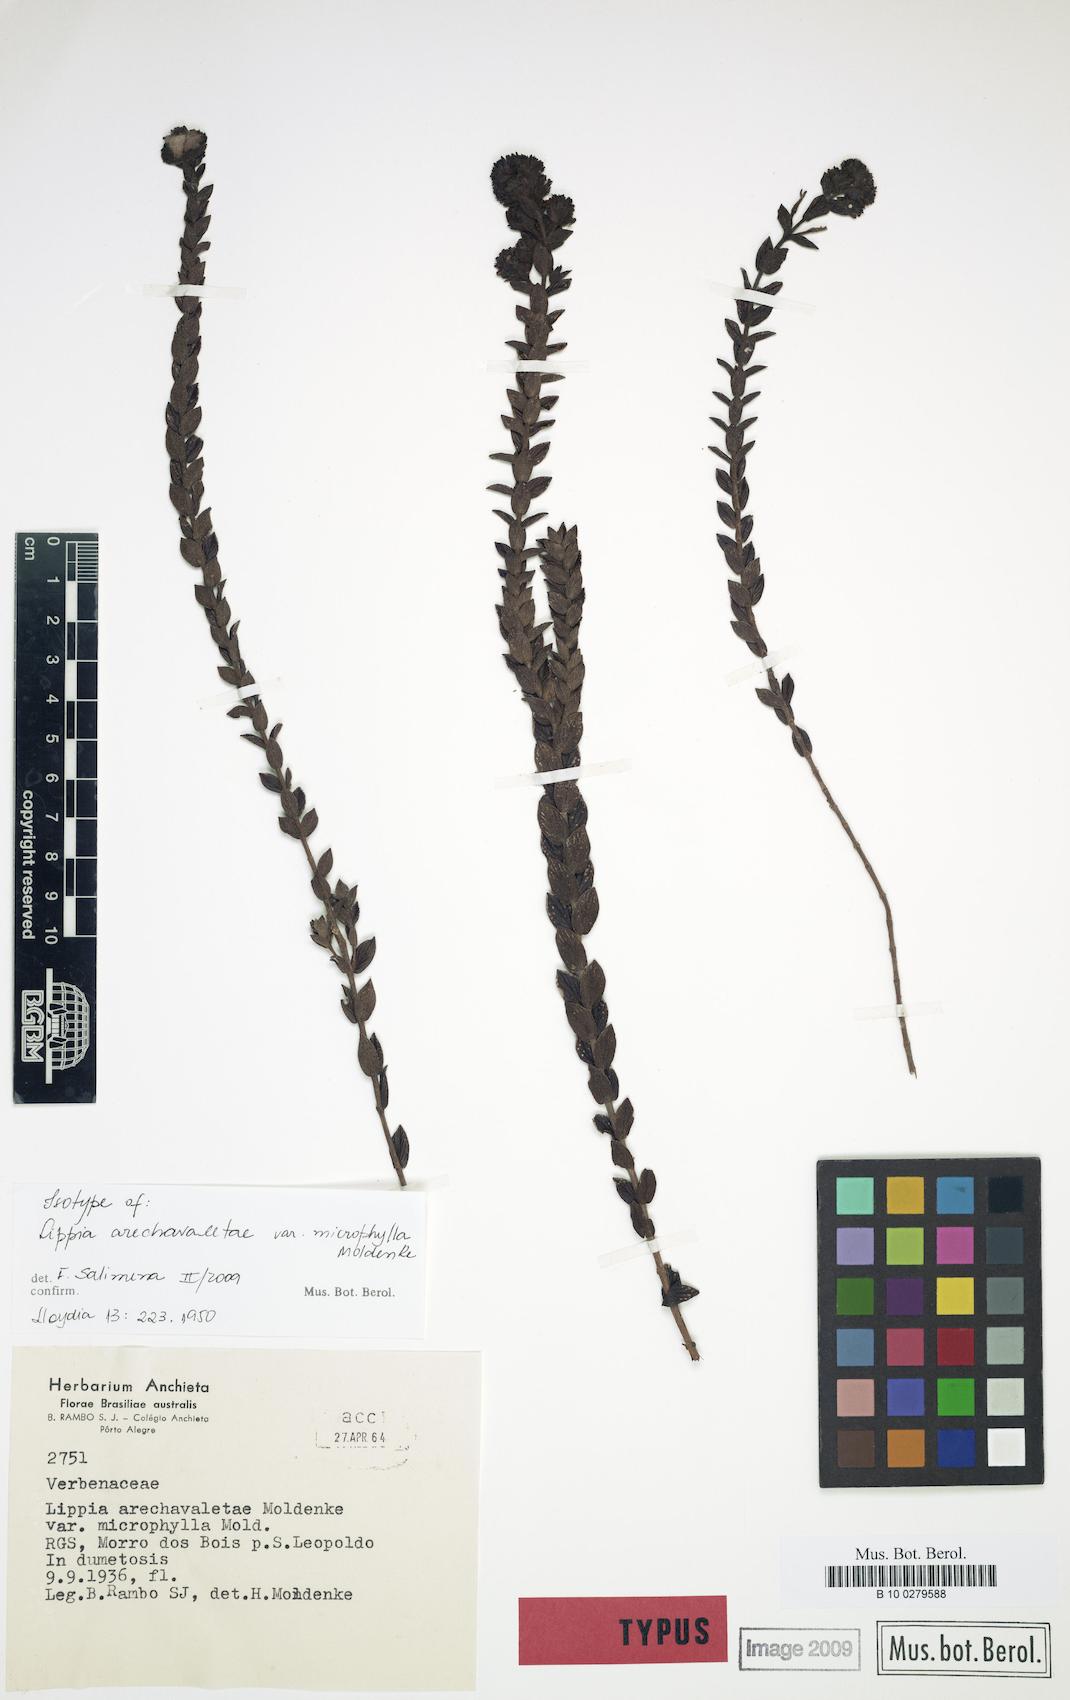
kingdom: Plantae
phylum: Tracheophyta
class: Magnoliopsida
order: Lamiales
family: Verbenaceae
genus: Lippia
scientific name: Lippia arechavaletae
